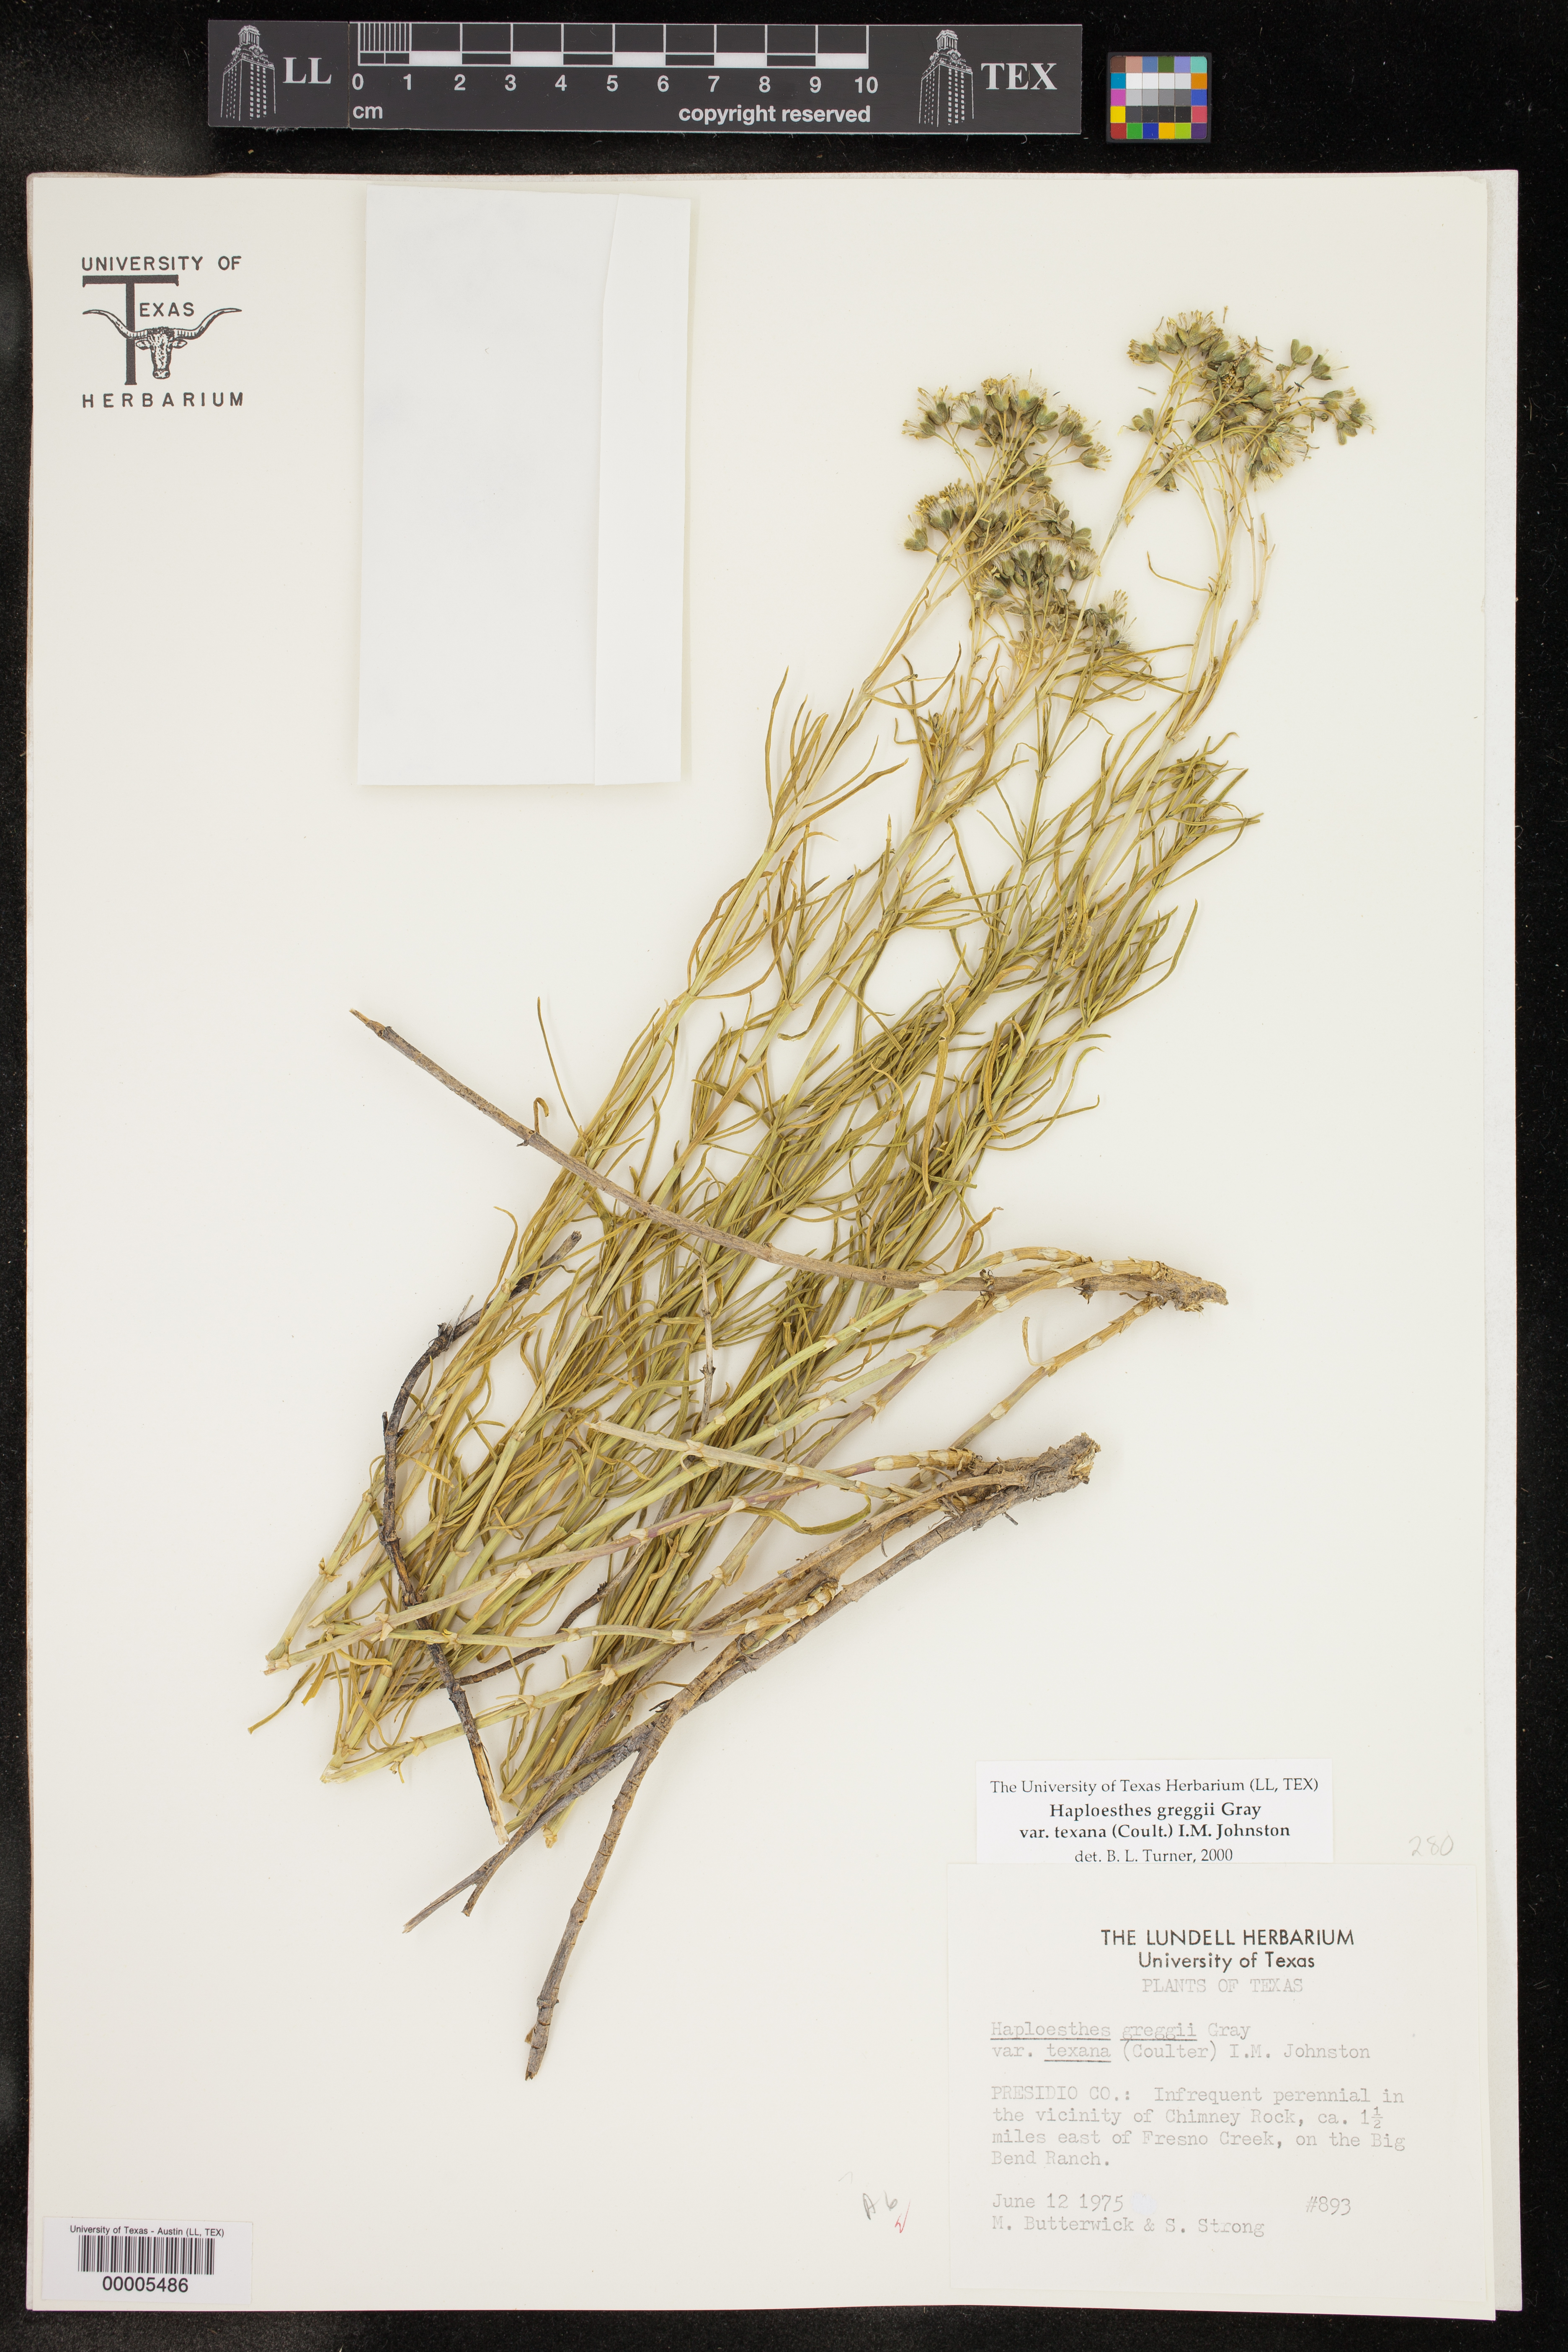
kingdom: Plantae
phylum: Tracheophyta
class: Magnoliopsida
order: Asterales
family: Asteraceae
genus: Haploesthes
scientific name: Haploesthes greggii
